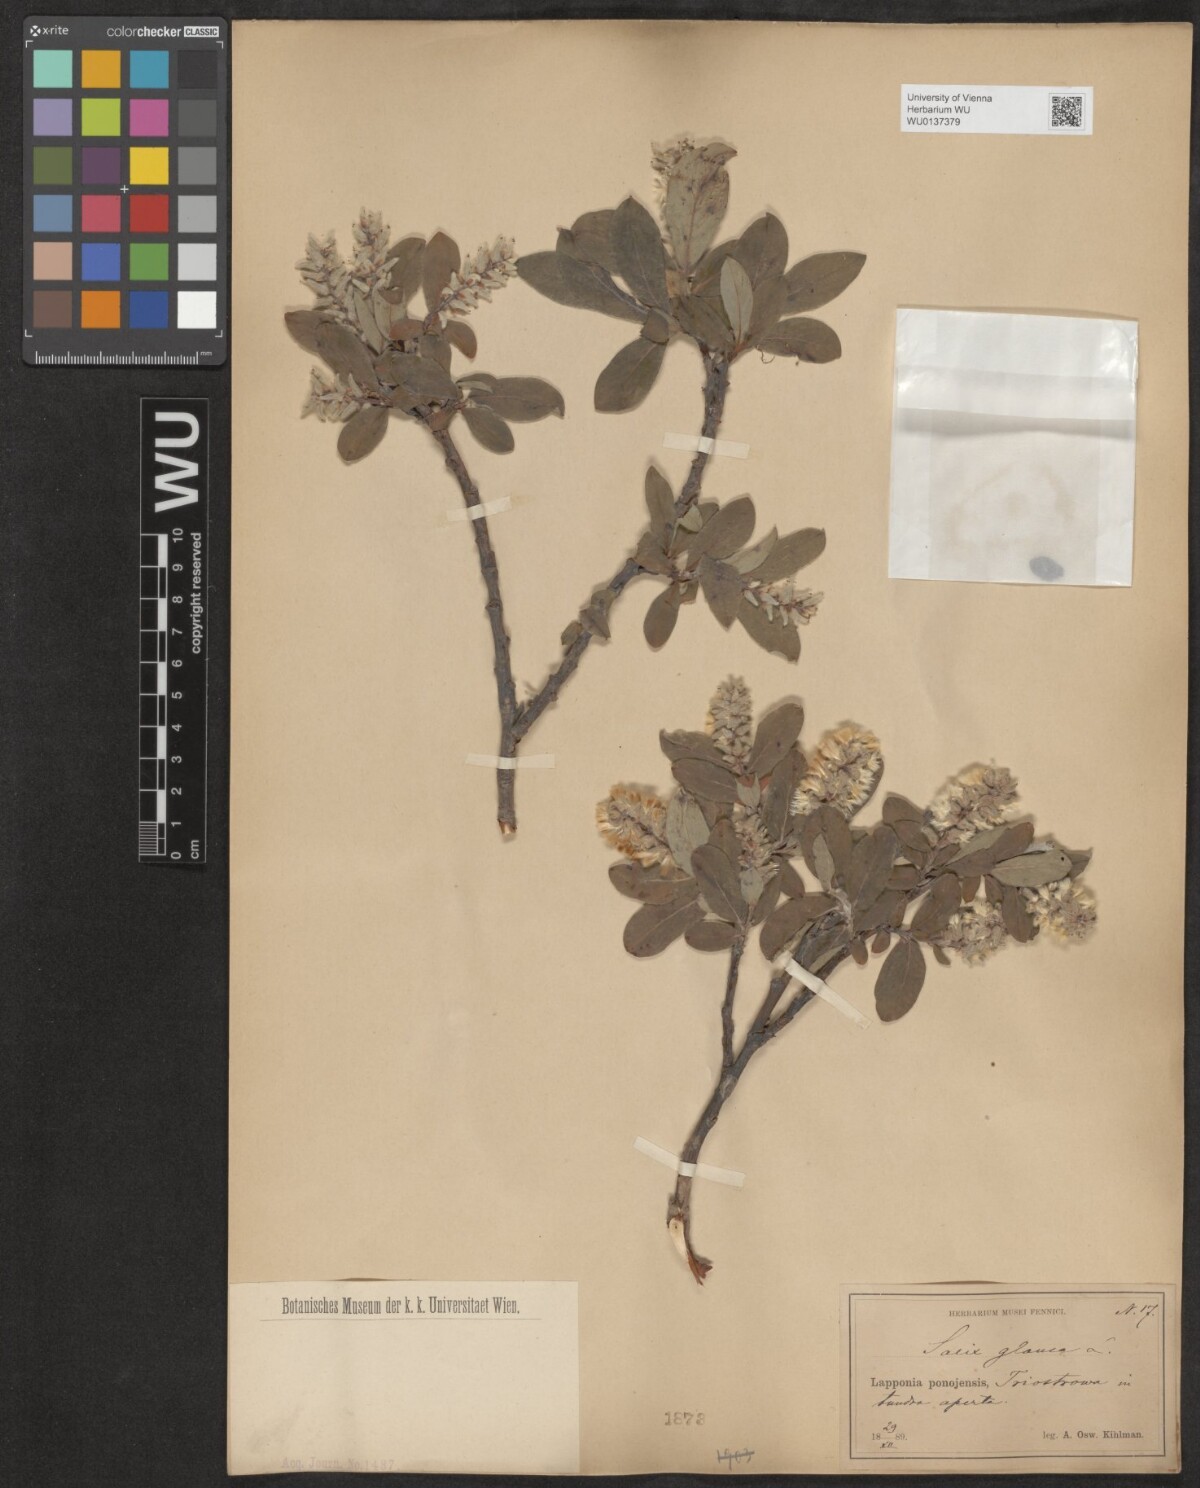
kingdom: Plantae
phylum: Tracheophyta
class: Magnoliopsida
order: Malpighiales
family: Salicaceae
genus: Salix
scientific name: Salix glauca
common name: Glaucous willow
